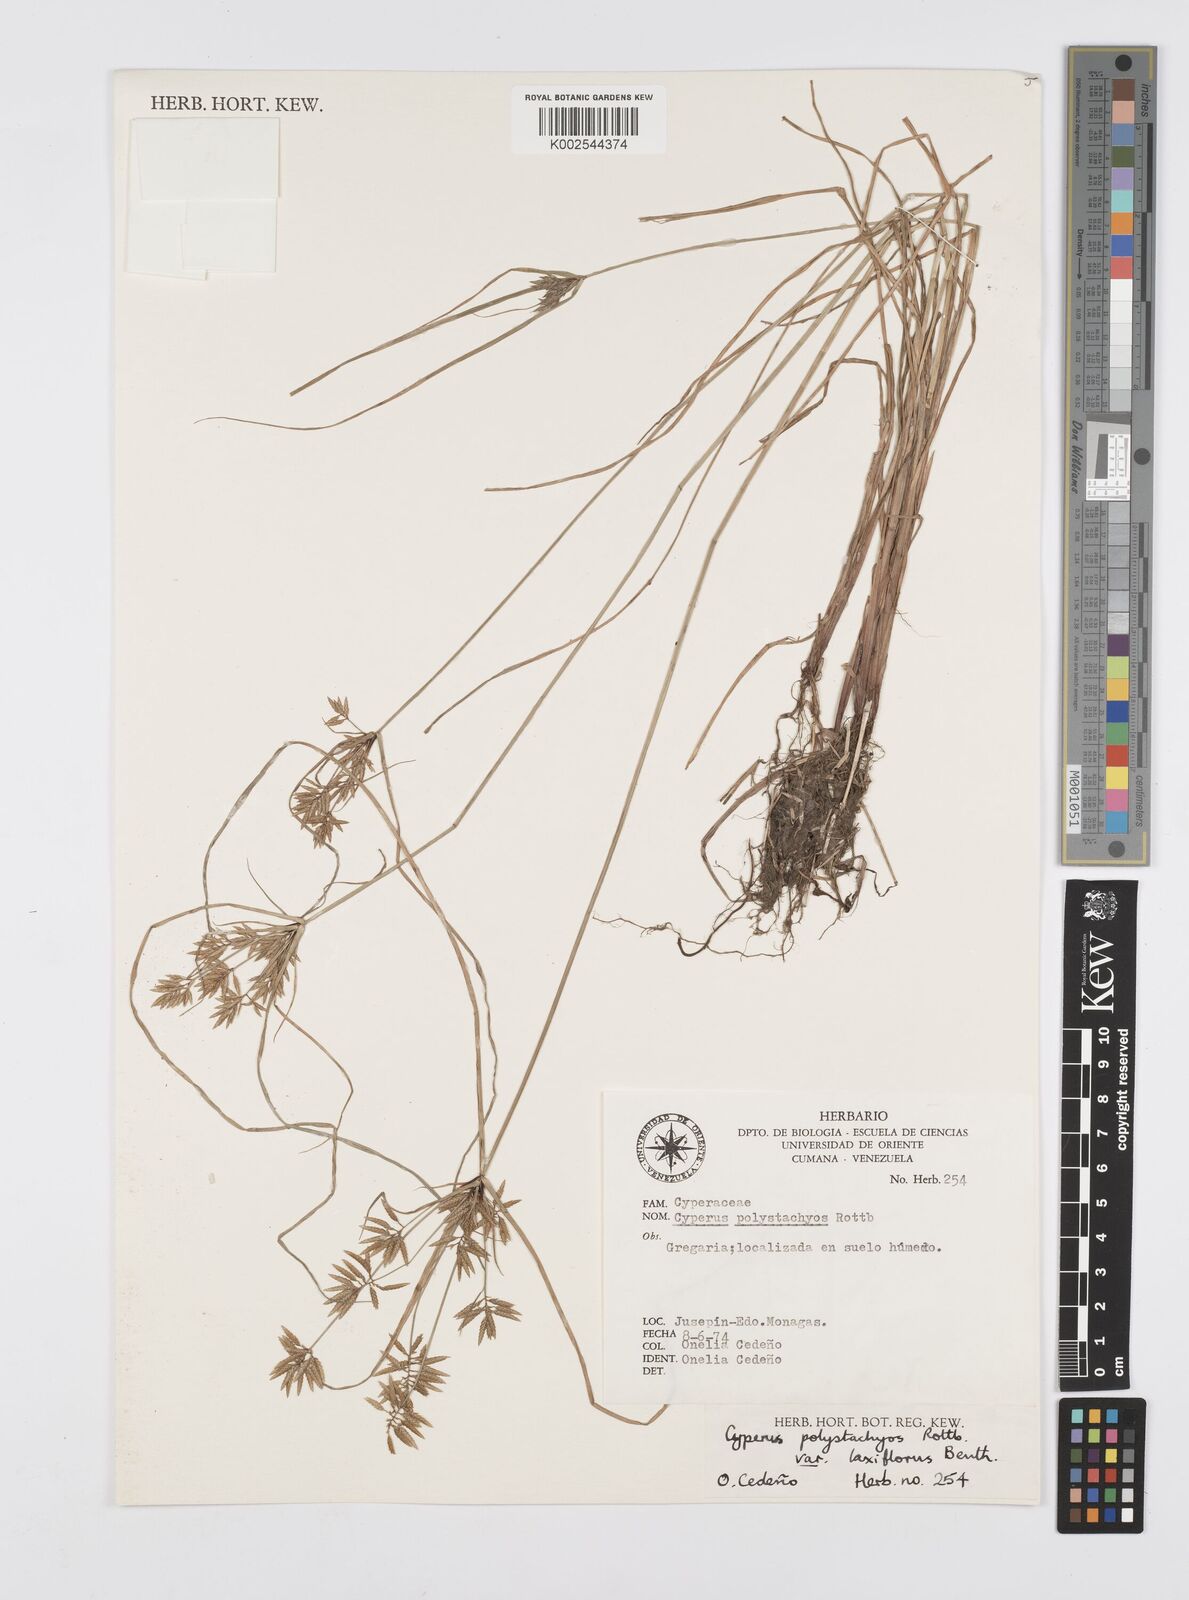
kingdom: Plantae
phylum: Tracheophyta
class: Liliopsida
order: Poales
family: Cyperaceae
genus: Cyperus
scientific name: Cyperus polystachyos
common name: Bunchy flat sedge
